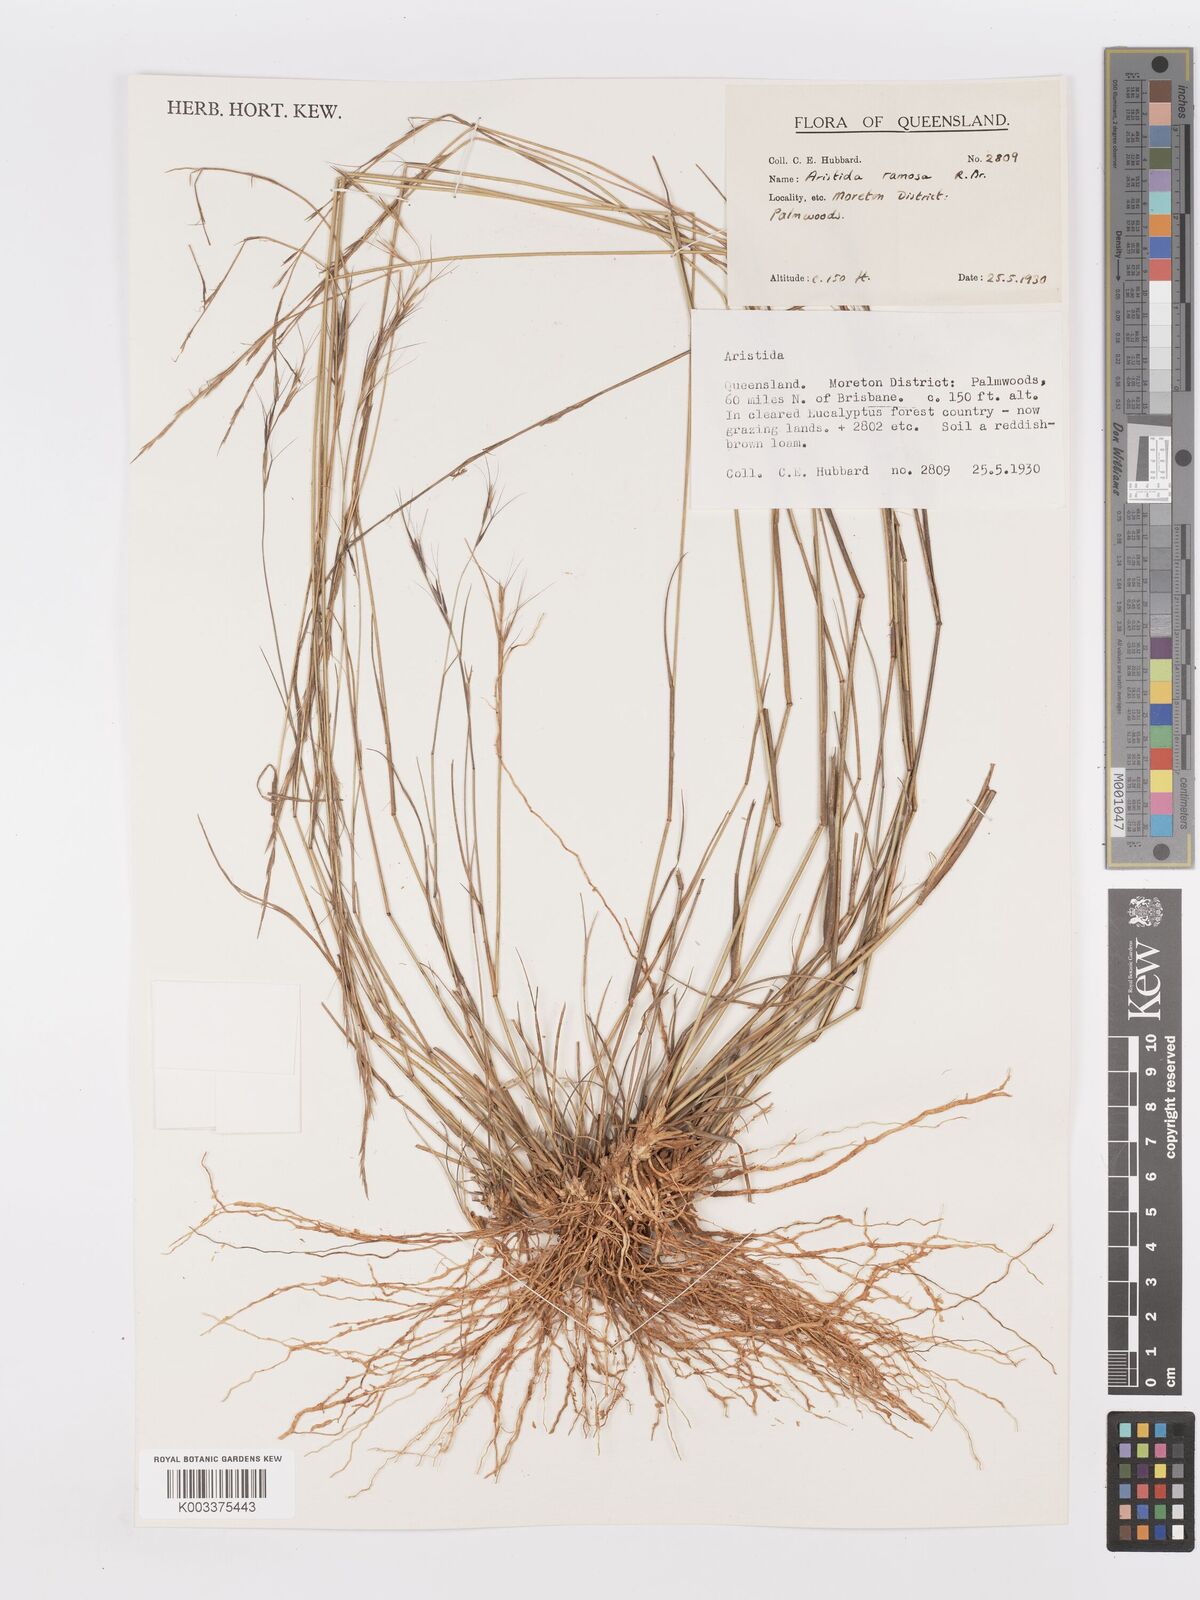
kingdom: Plantae
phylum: Tracheophyta
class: Liliopsida
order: Poales
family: Poaceae
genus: Aristida
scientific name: Aristida ramosa
